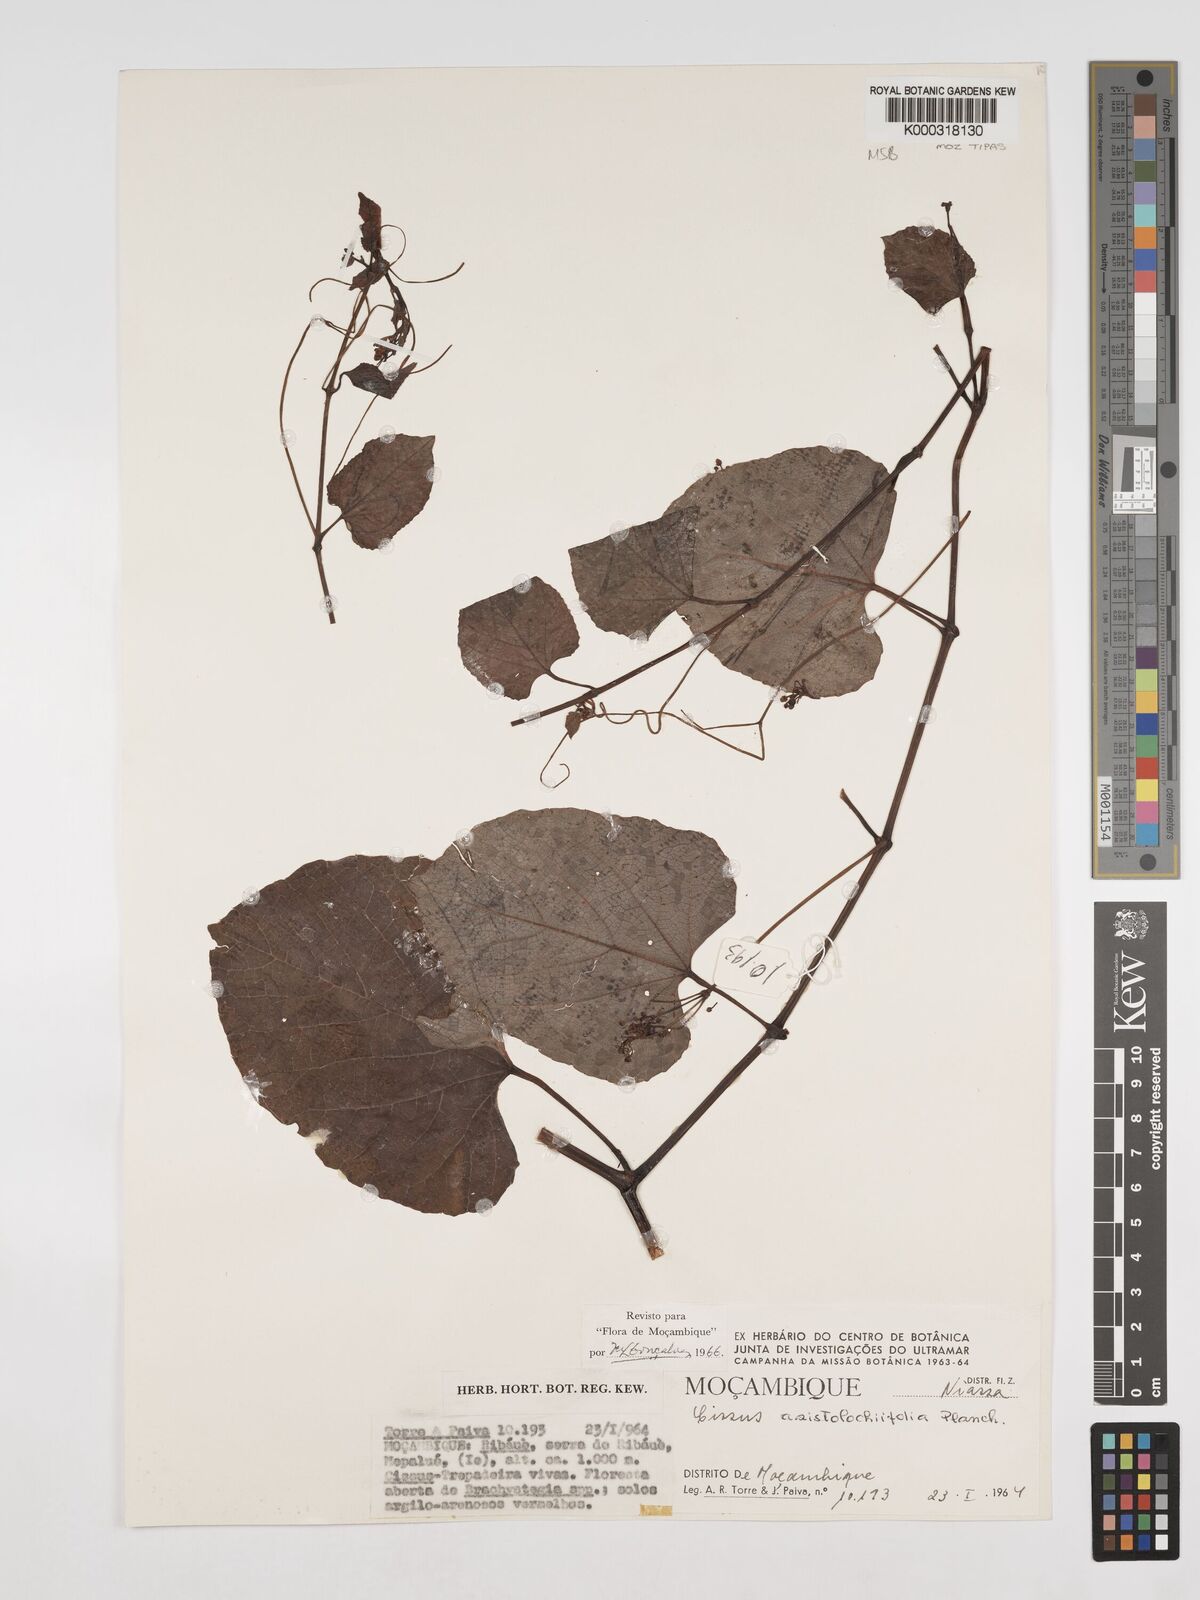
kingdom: Plantae
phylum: Tracheophyta
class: Magnoliopsida
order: Vitales
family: Vitaceae
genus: Cissus
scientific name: Cissus aristolochiifolia
